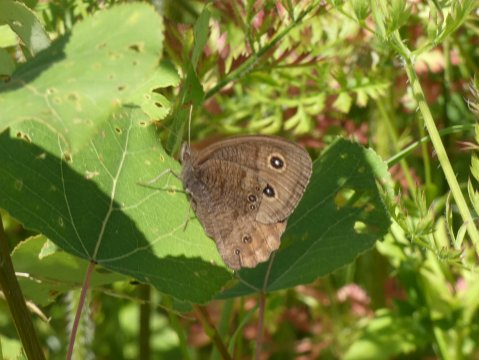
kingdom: Animalia
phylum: Arthropoda
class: Insecta
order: Lepidoptera
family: Nymphalidae
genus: Cercyonis
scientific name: Cercyonis pegala
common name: Common Wood-Nymph
